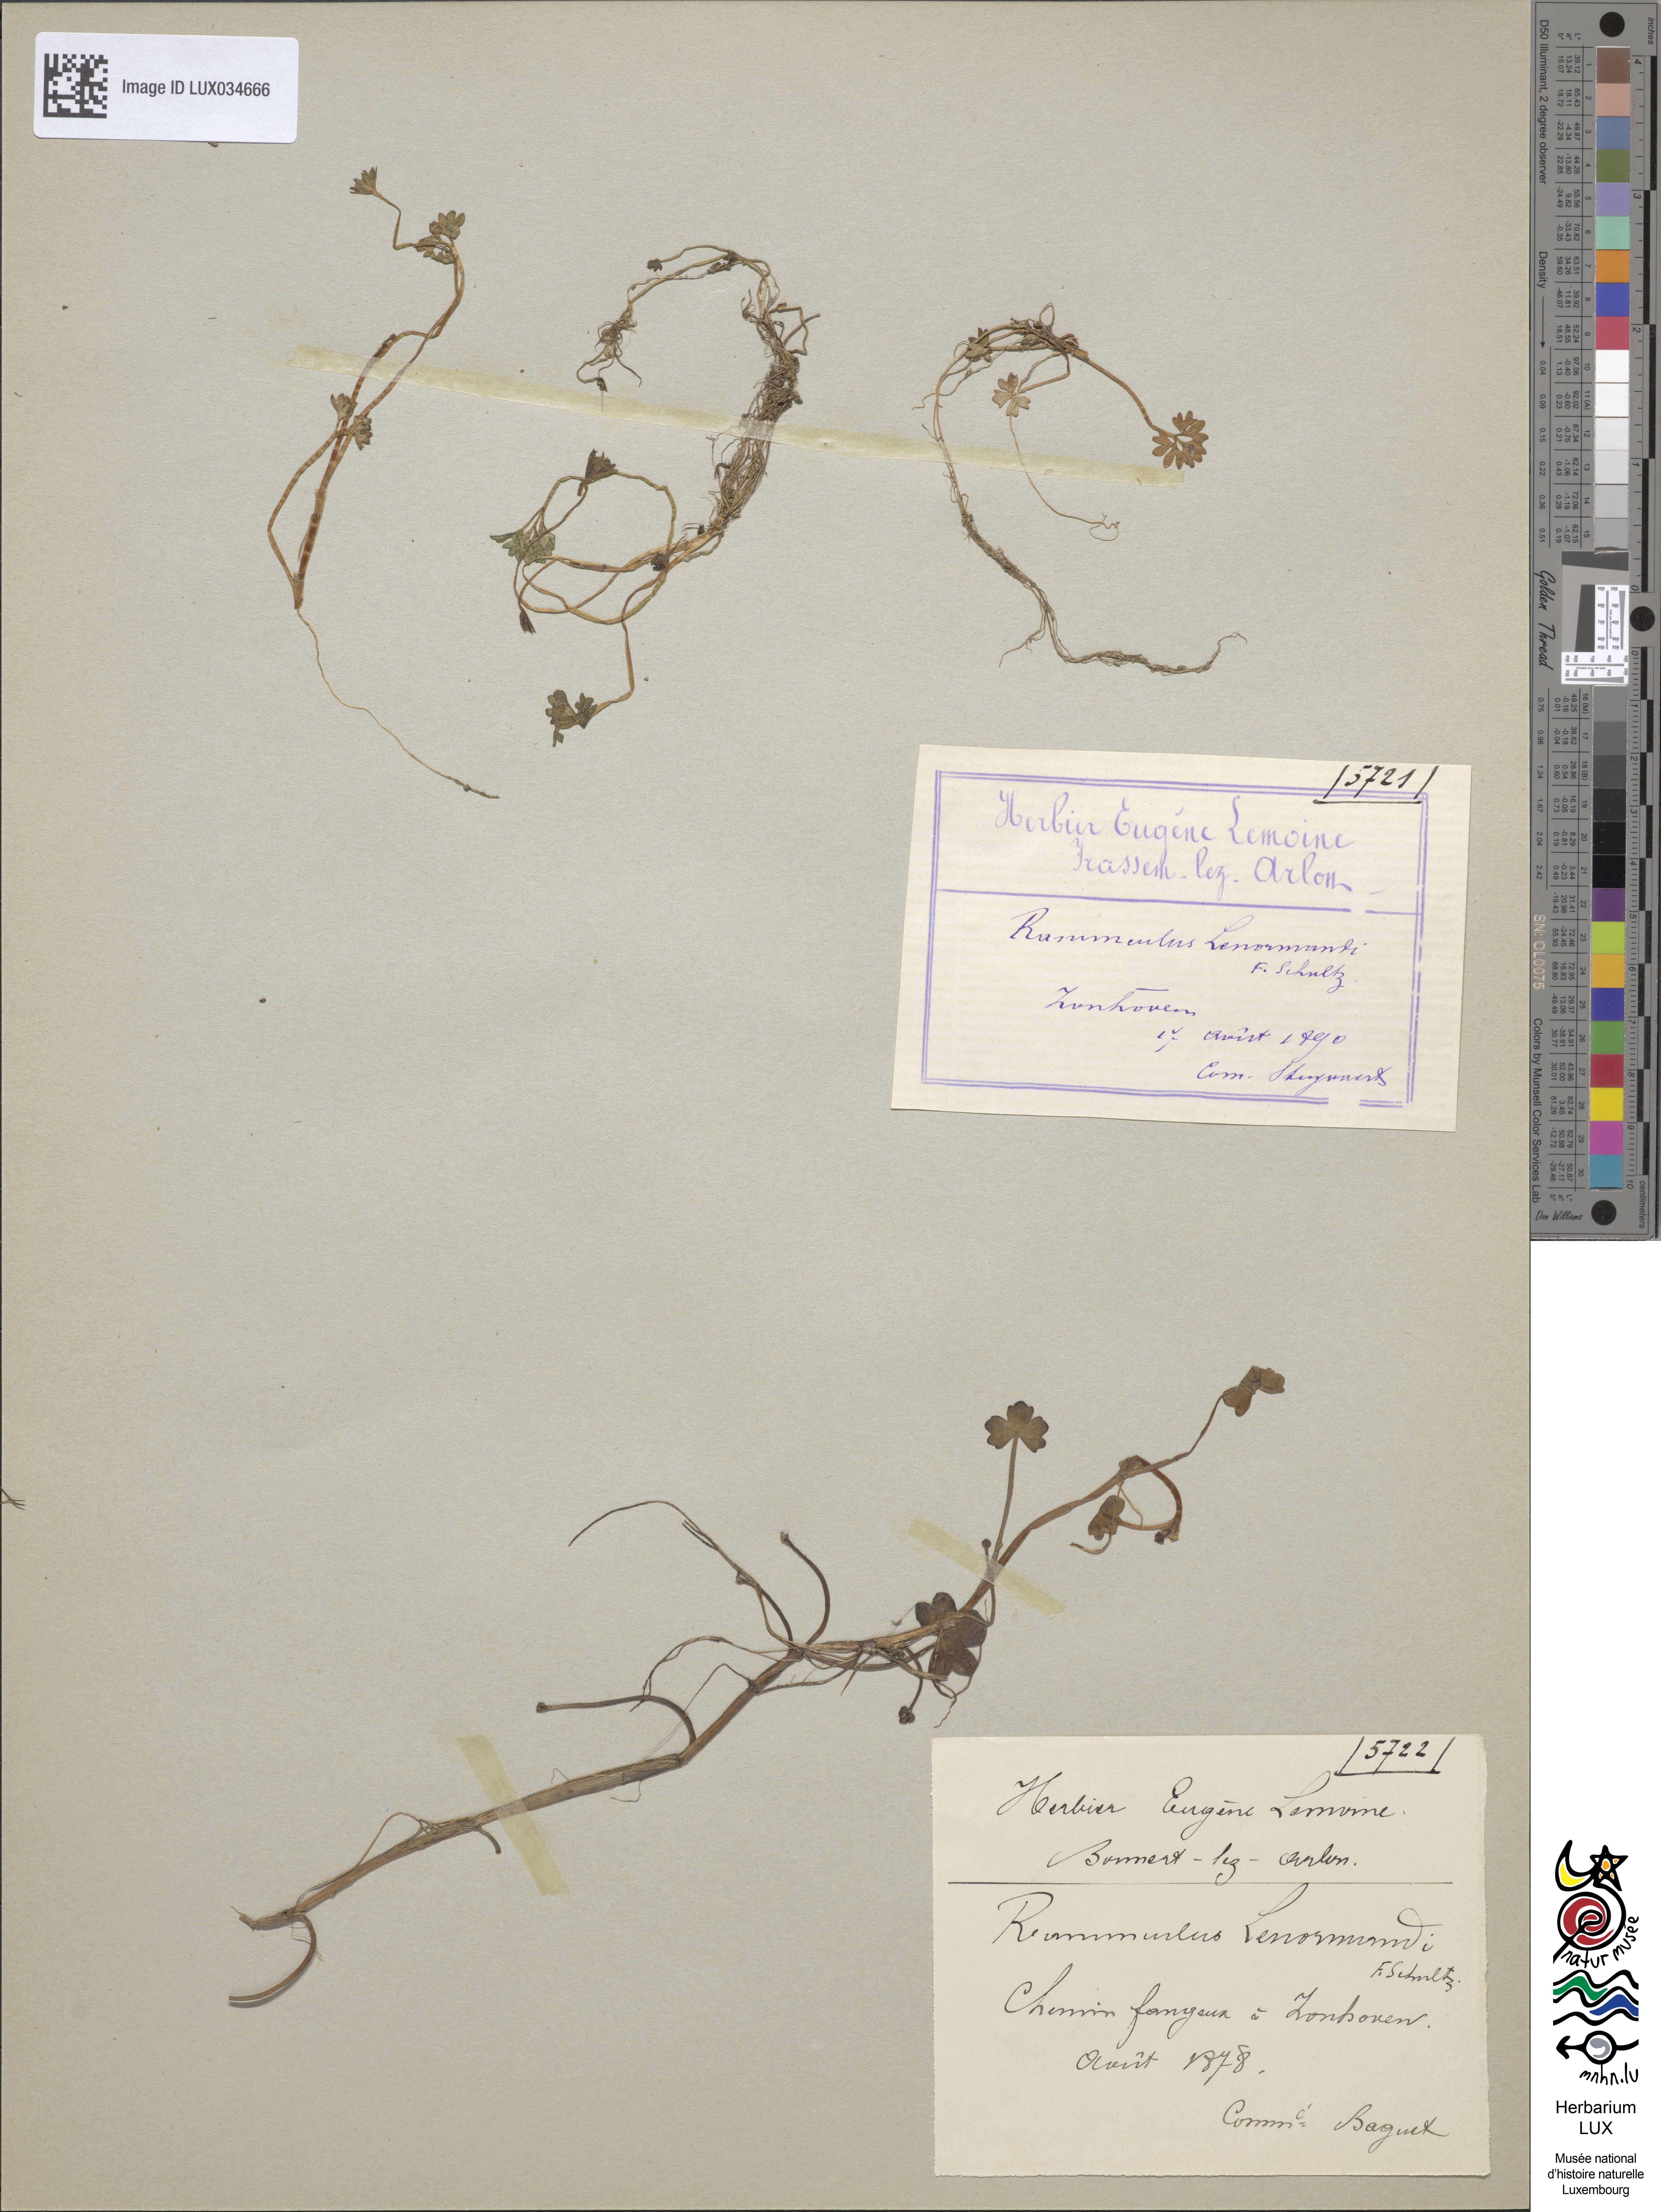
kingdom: Plantae
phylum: Tracheophyta
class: Magnoliopsida
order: Ranunculales
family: Ranunculaceae
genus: Ranunculus
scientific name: Ranunculus omiophyllus
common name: Round-leaved crowfoot
